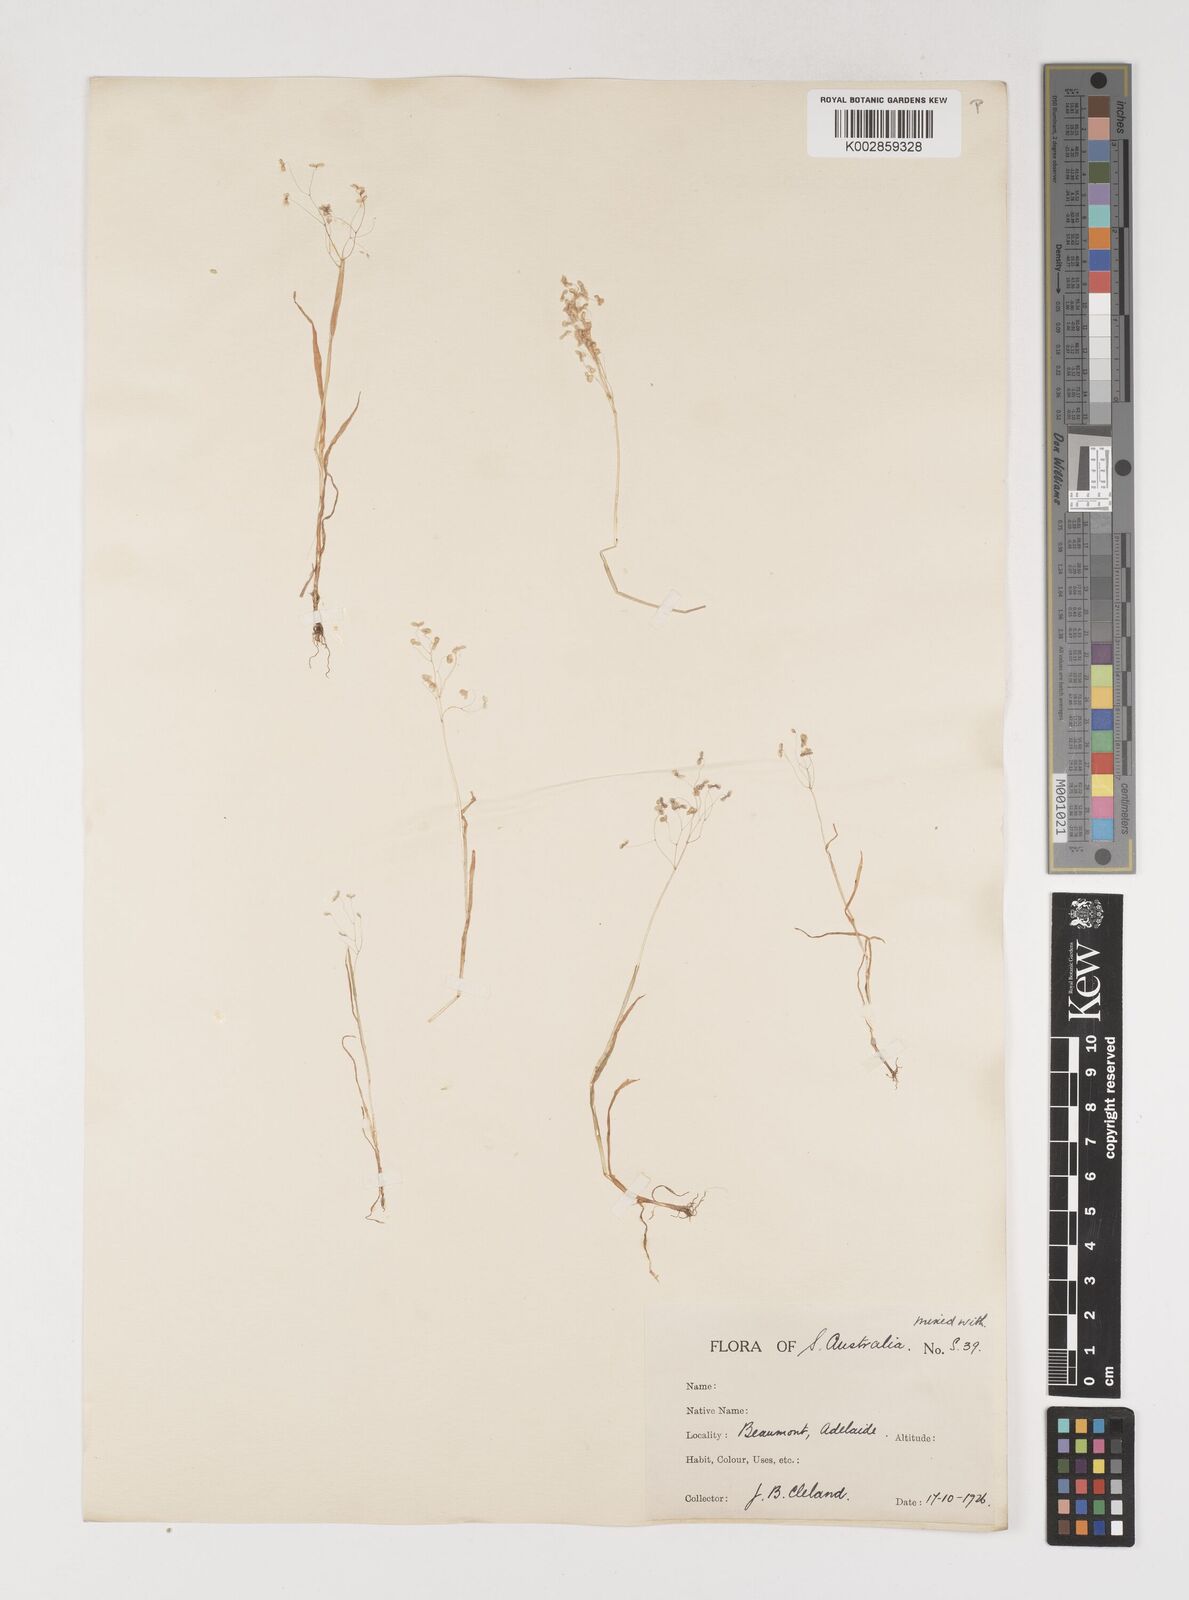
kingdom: Plantae
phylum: Tracheophyta
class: Liliopsida
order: Poales
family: Poaceae
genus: Briza
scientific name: Briza minor
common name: Lesser quaking-grass
